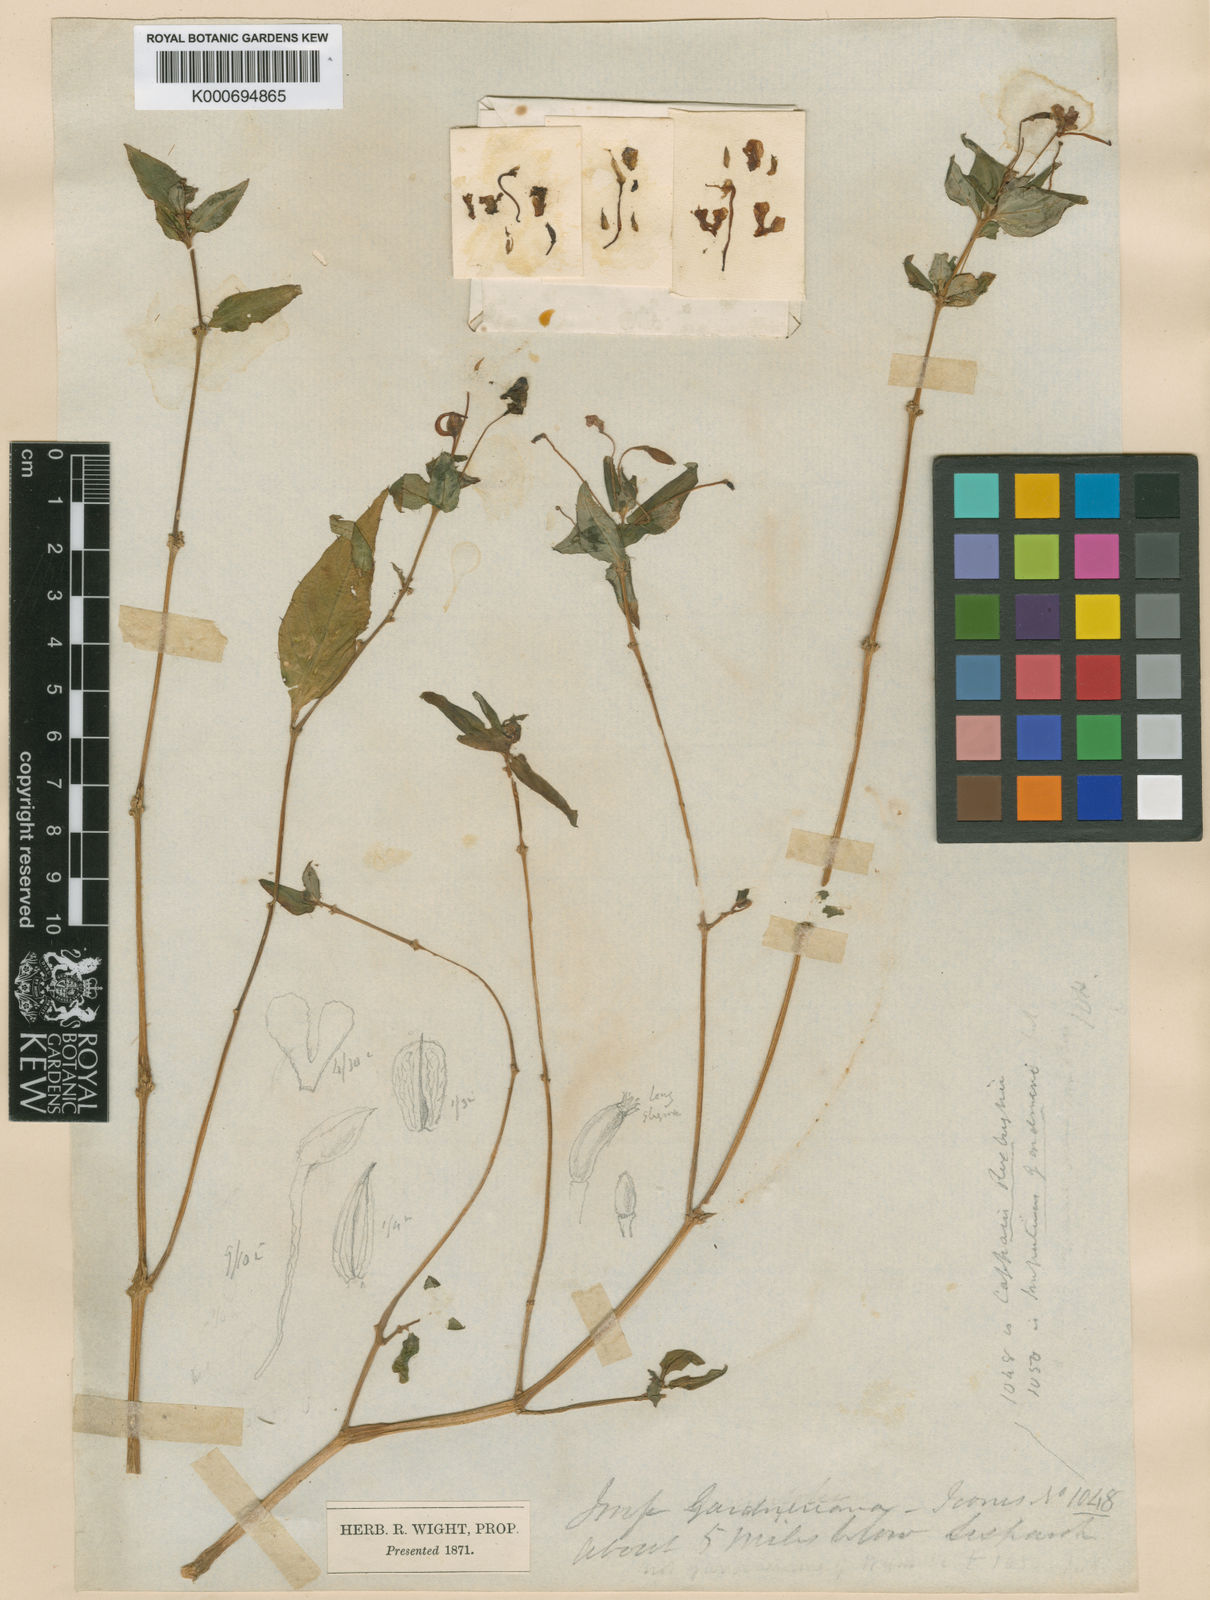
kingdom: Plantae
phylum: Tracheophyta
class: Magnoliopsida
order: Ericales
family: Balsaminaceae
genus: Impatiens
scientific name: Impatiens concinna
